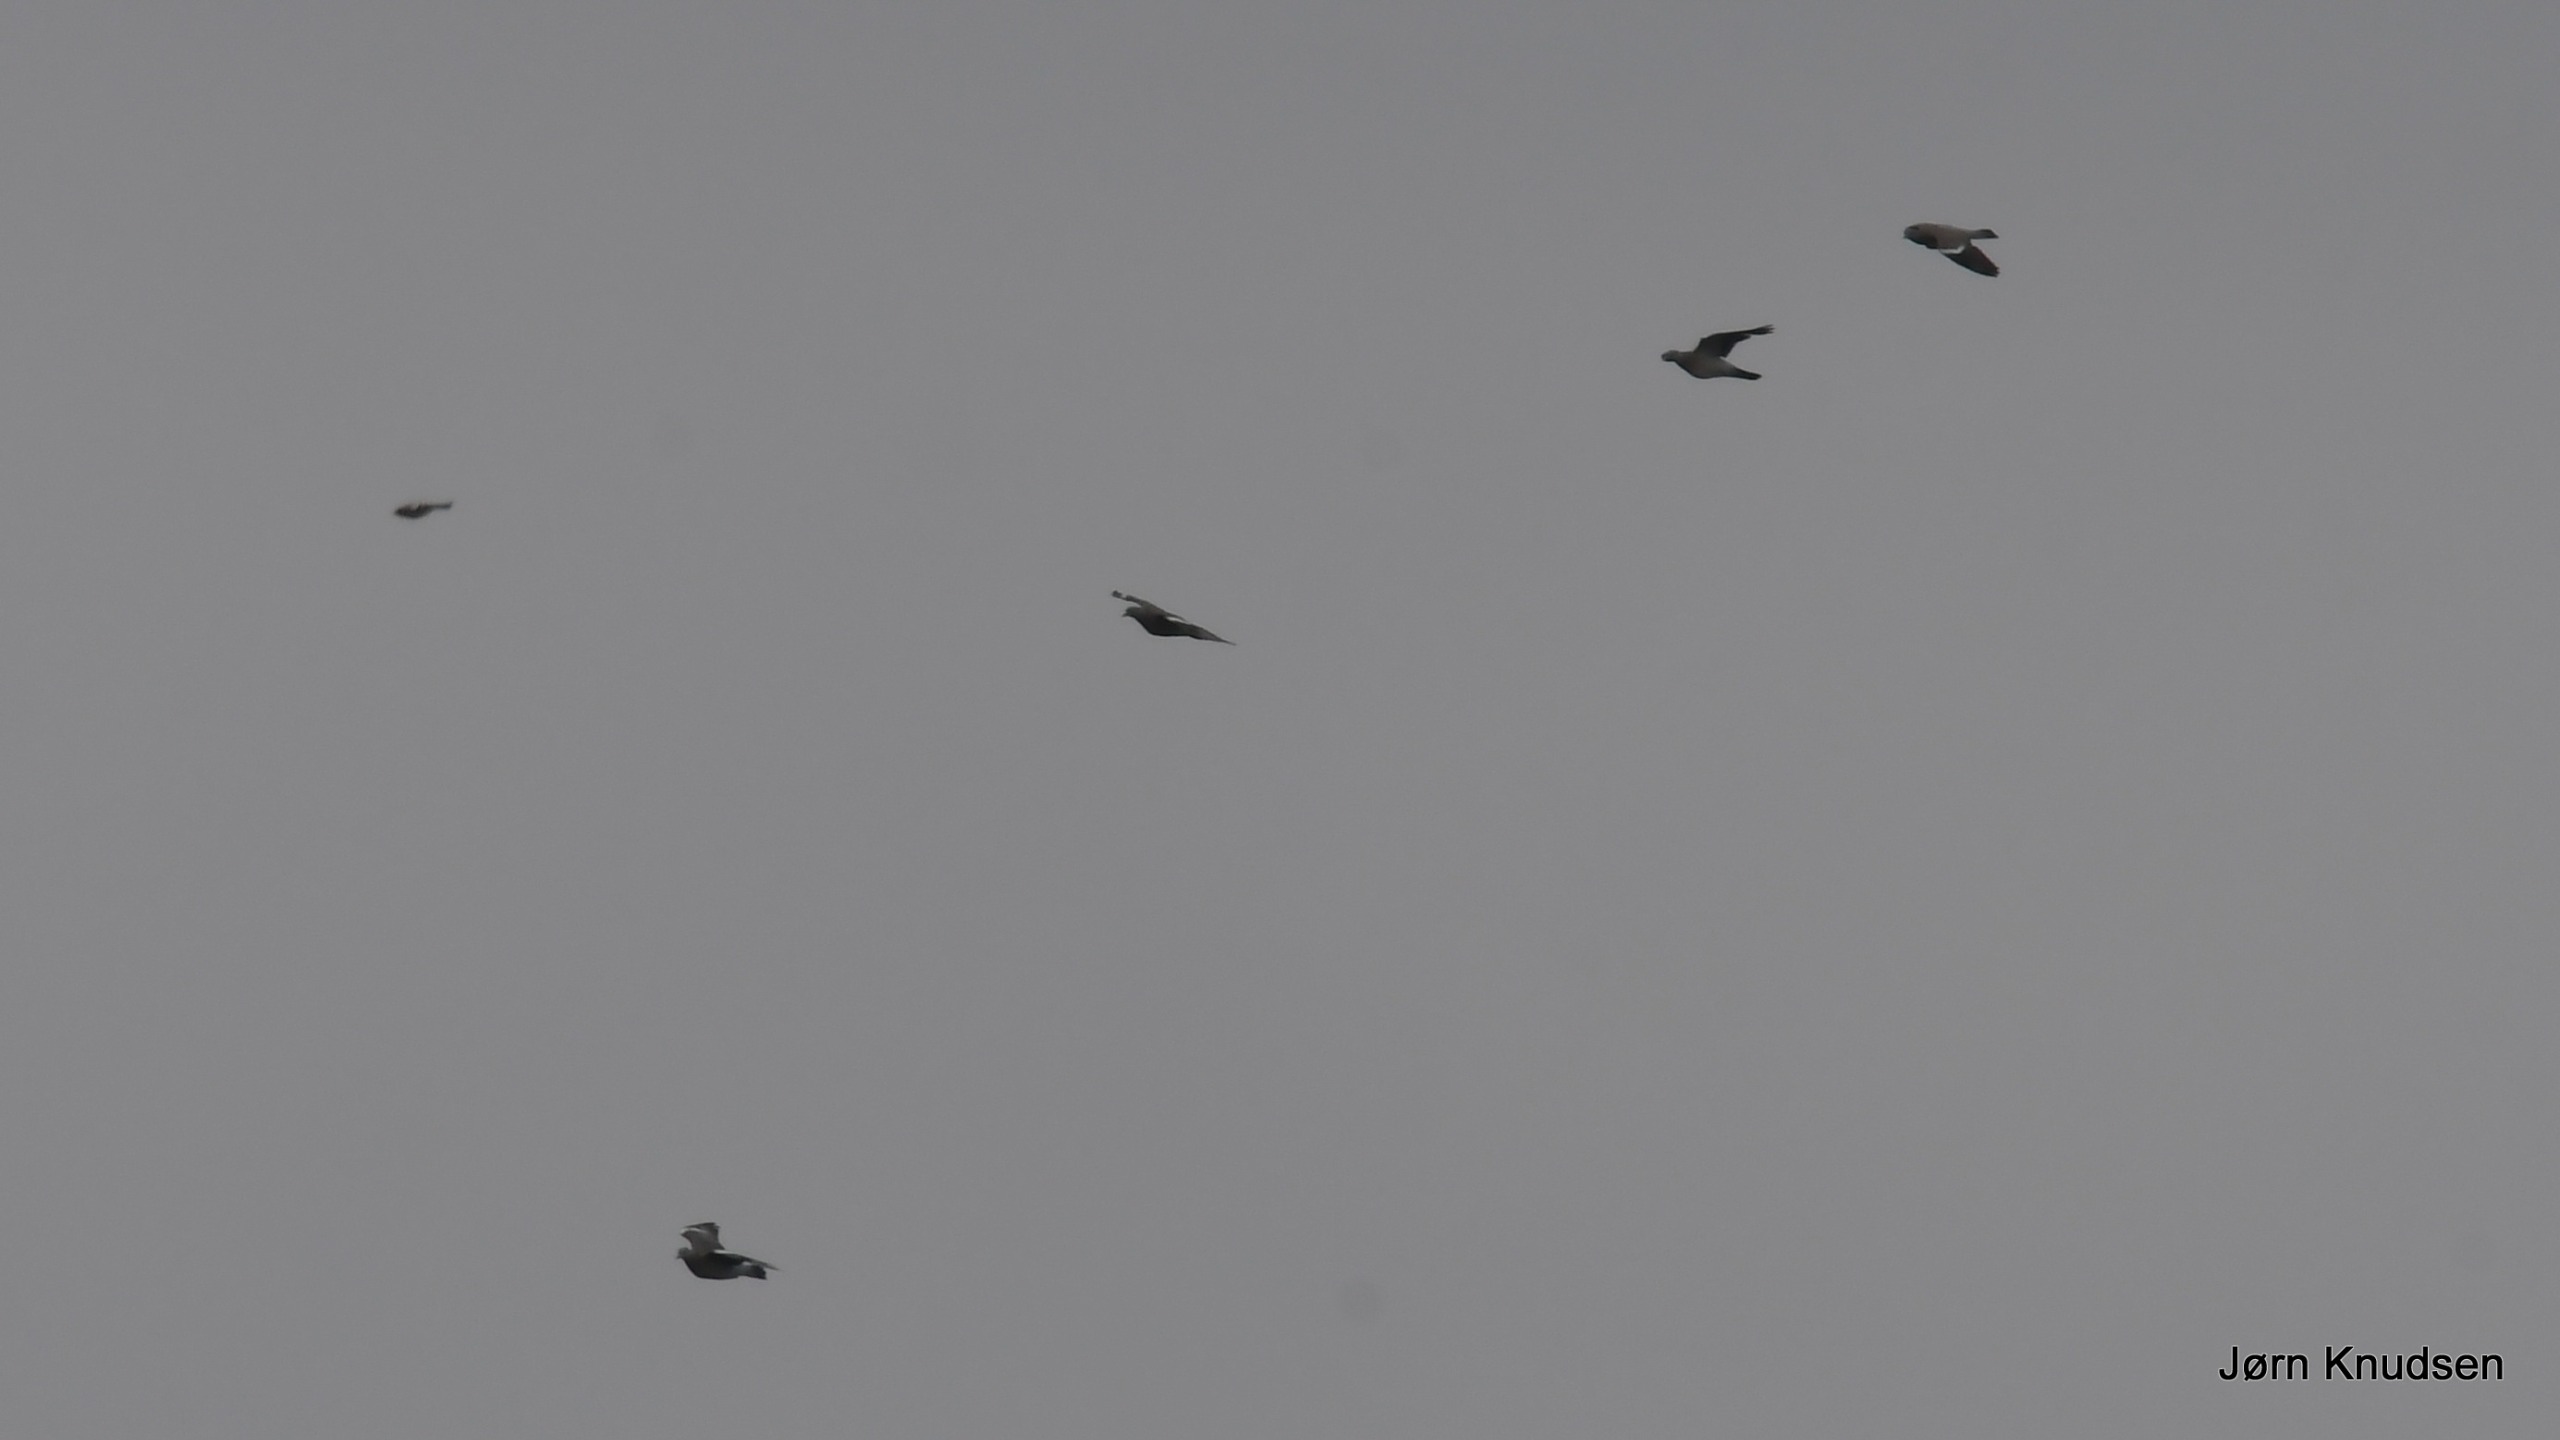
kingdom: Animalia
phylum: Chordata
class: Aves
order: Columbiformes
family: Columbidae
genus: Columba
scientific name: Columba palumbus
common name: Ringdue
